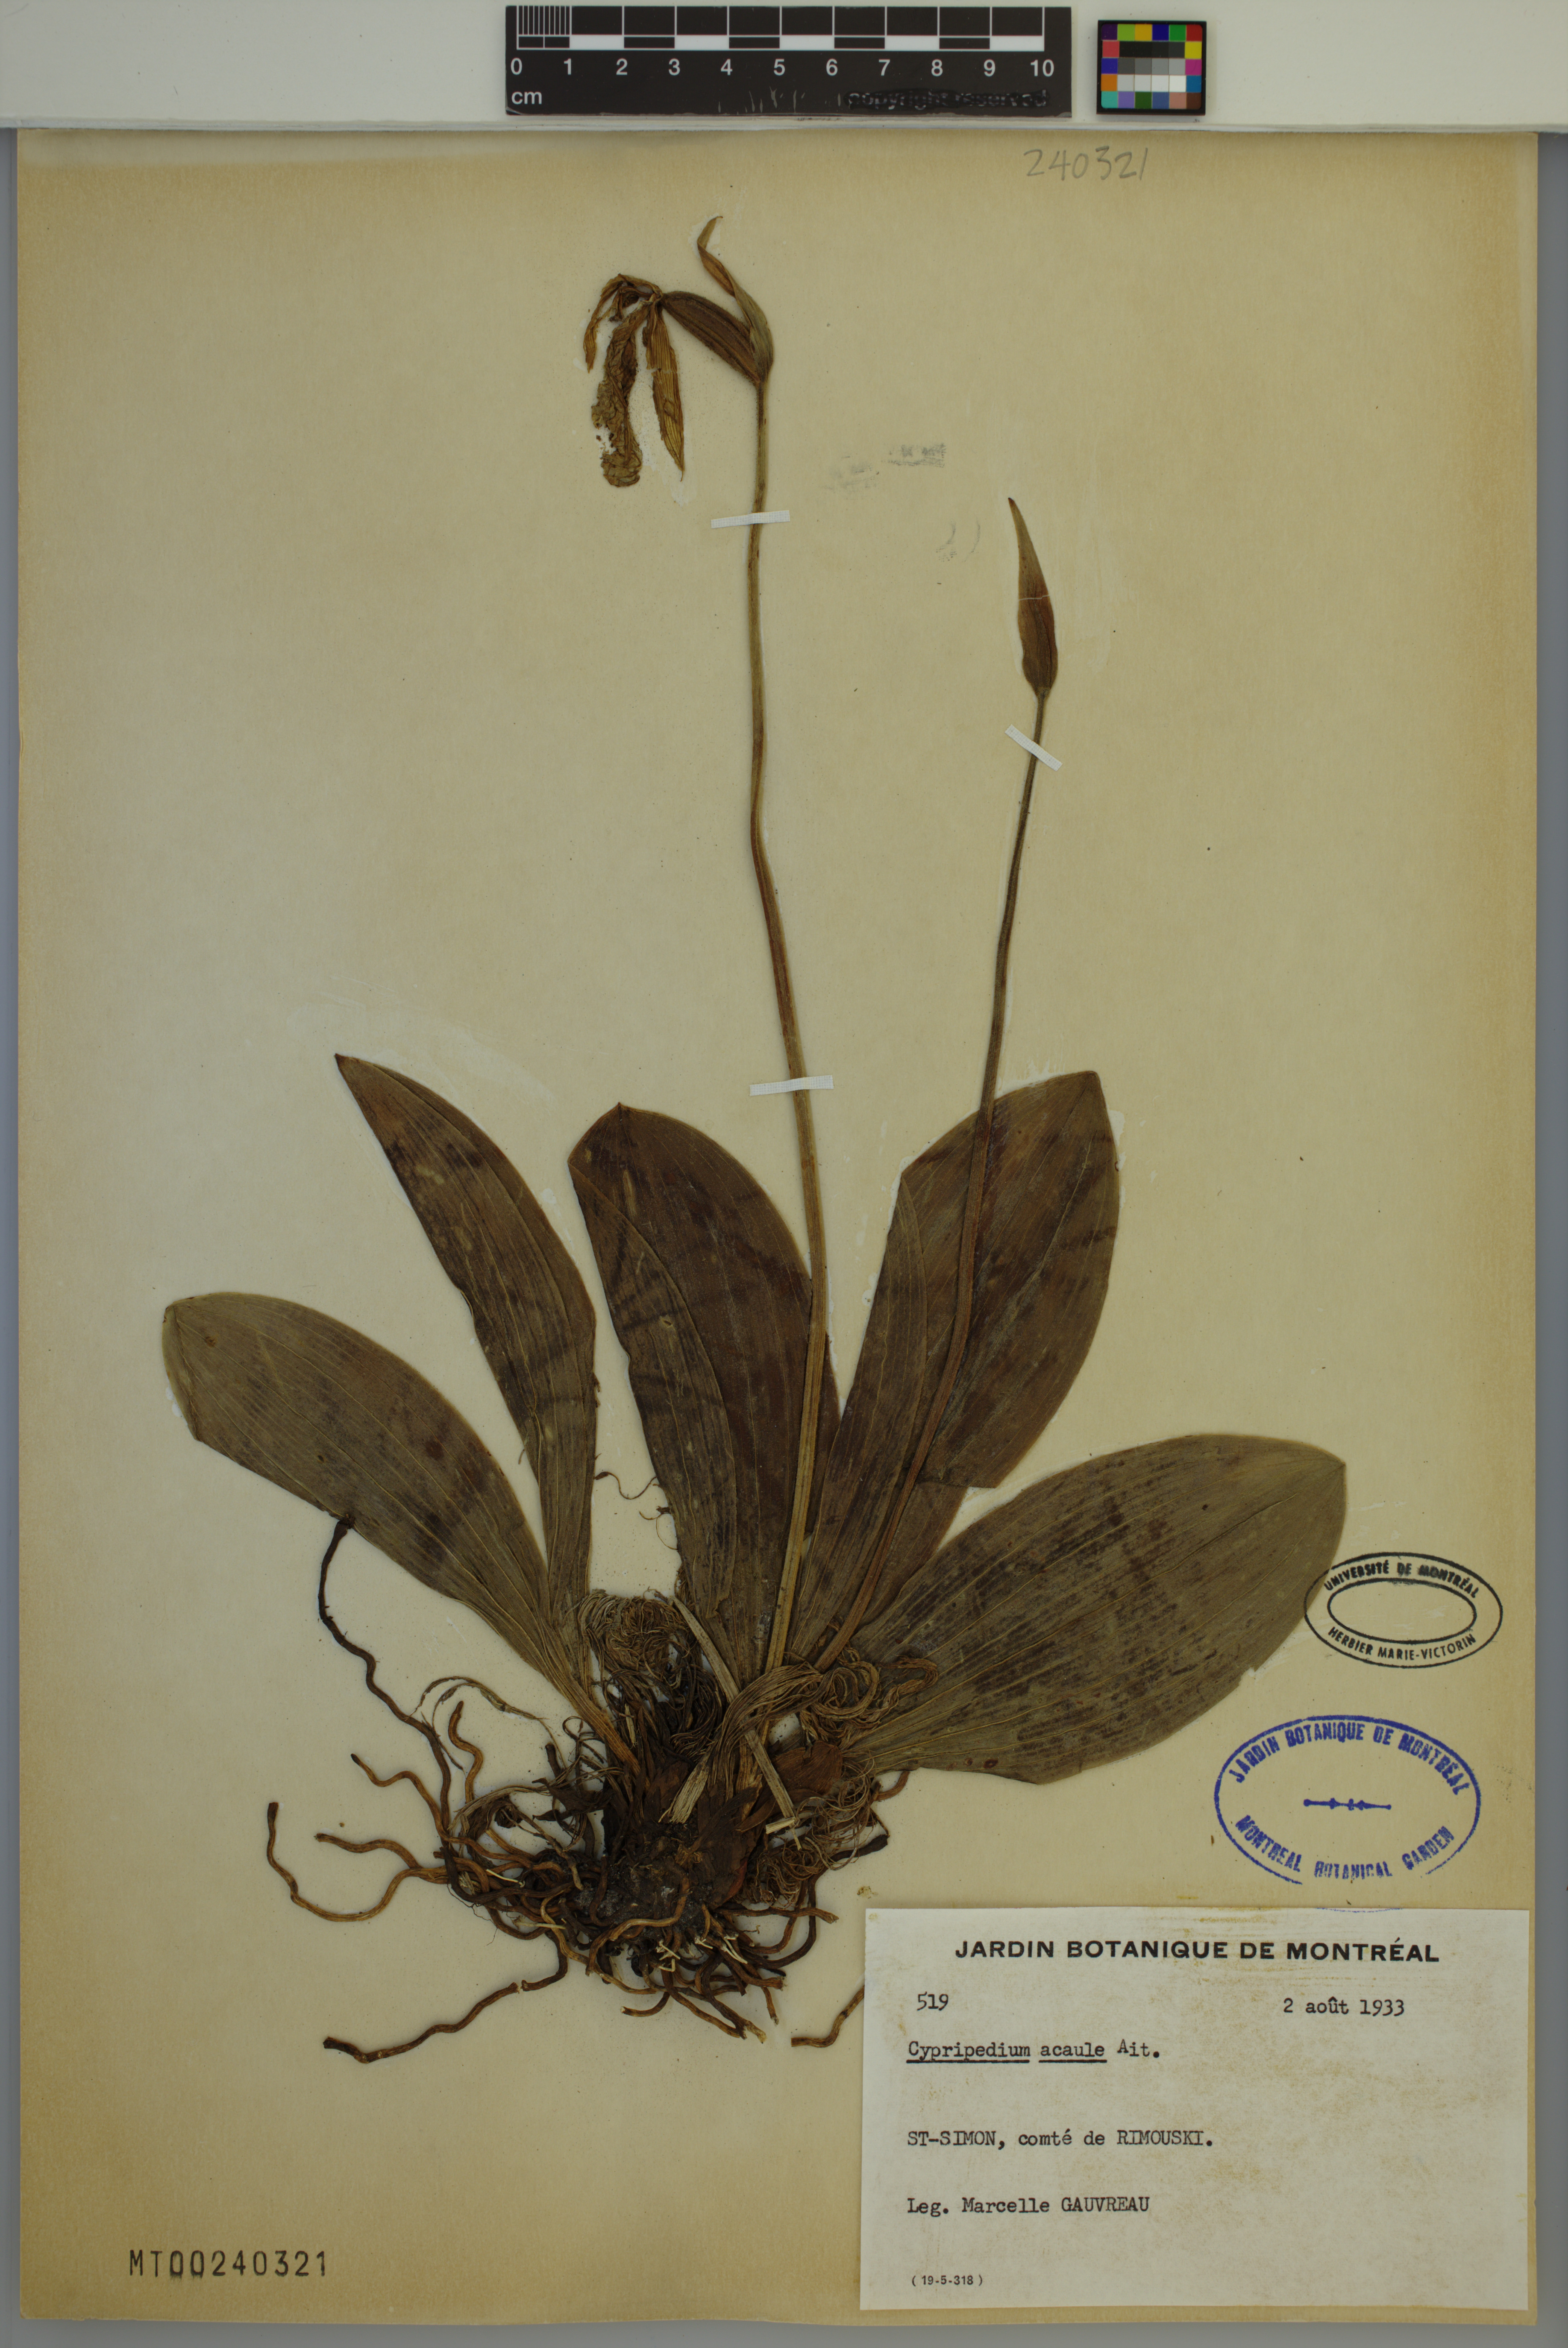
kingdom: Plantae
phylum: Tracheophyta
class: Liliopsida
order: Asparagales
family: Orchidaceae
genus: Cypripedium
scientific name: Cypripedium acaule
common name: Pink lady's-slipper
